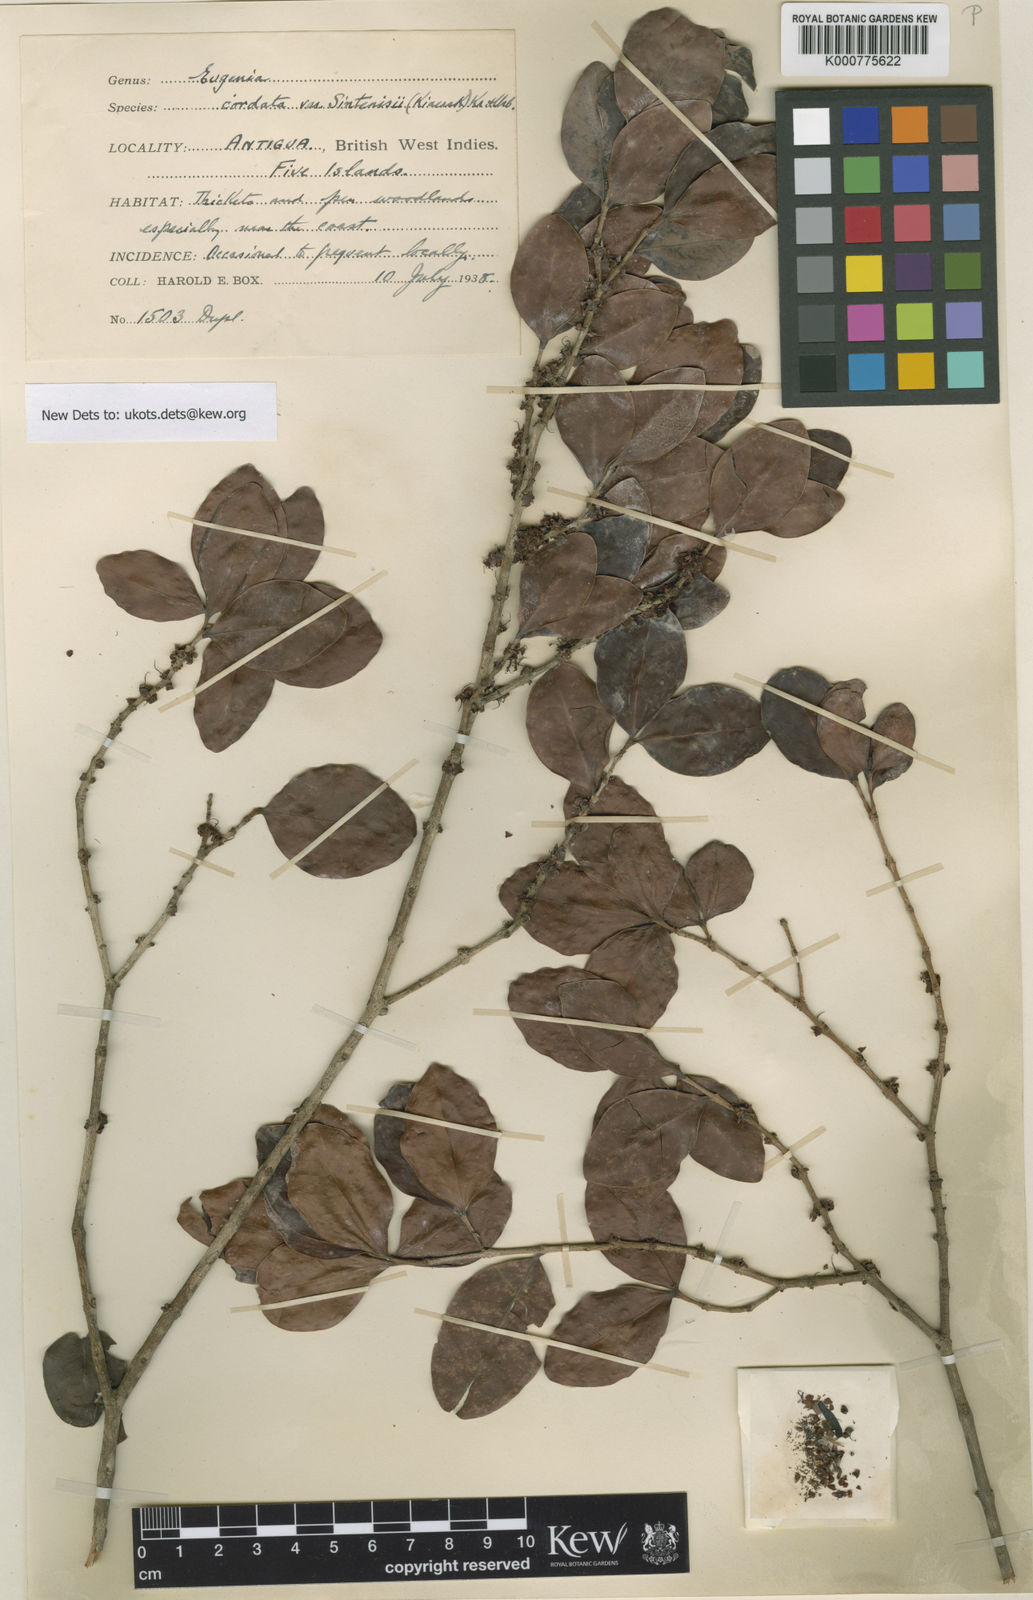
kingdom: Plantae
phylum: Tracheophyta
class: Magnoliopsida
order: Myrtales
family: Myrtaceae
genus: Eugenia
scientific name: Eugenia cordata
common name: Lathberry
